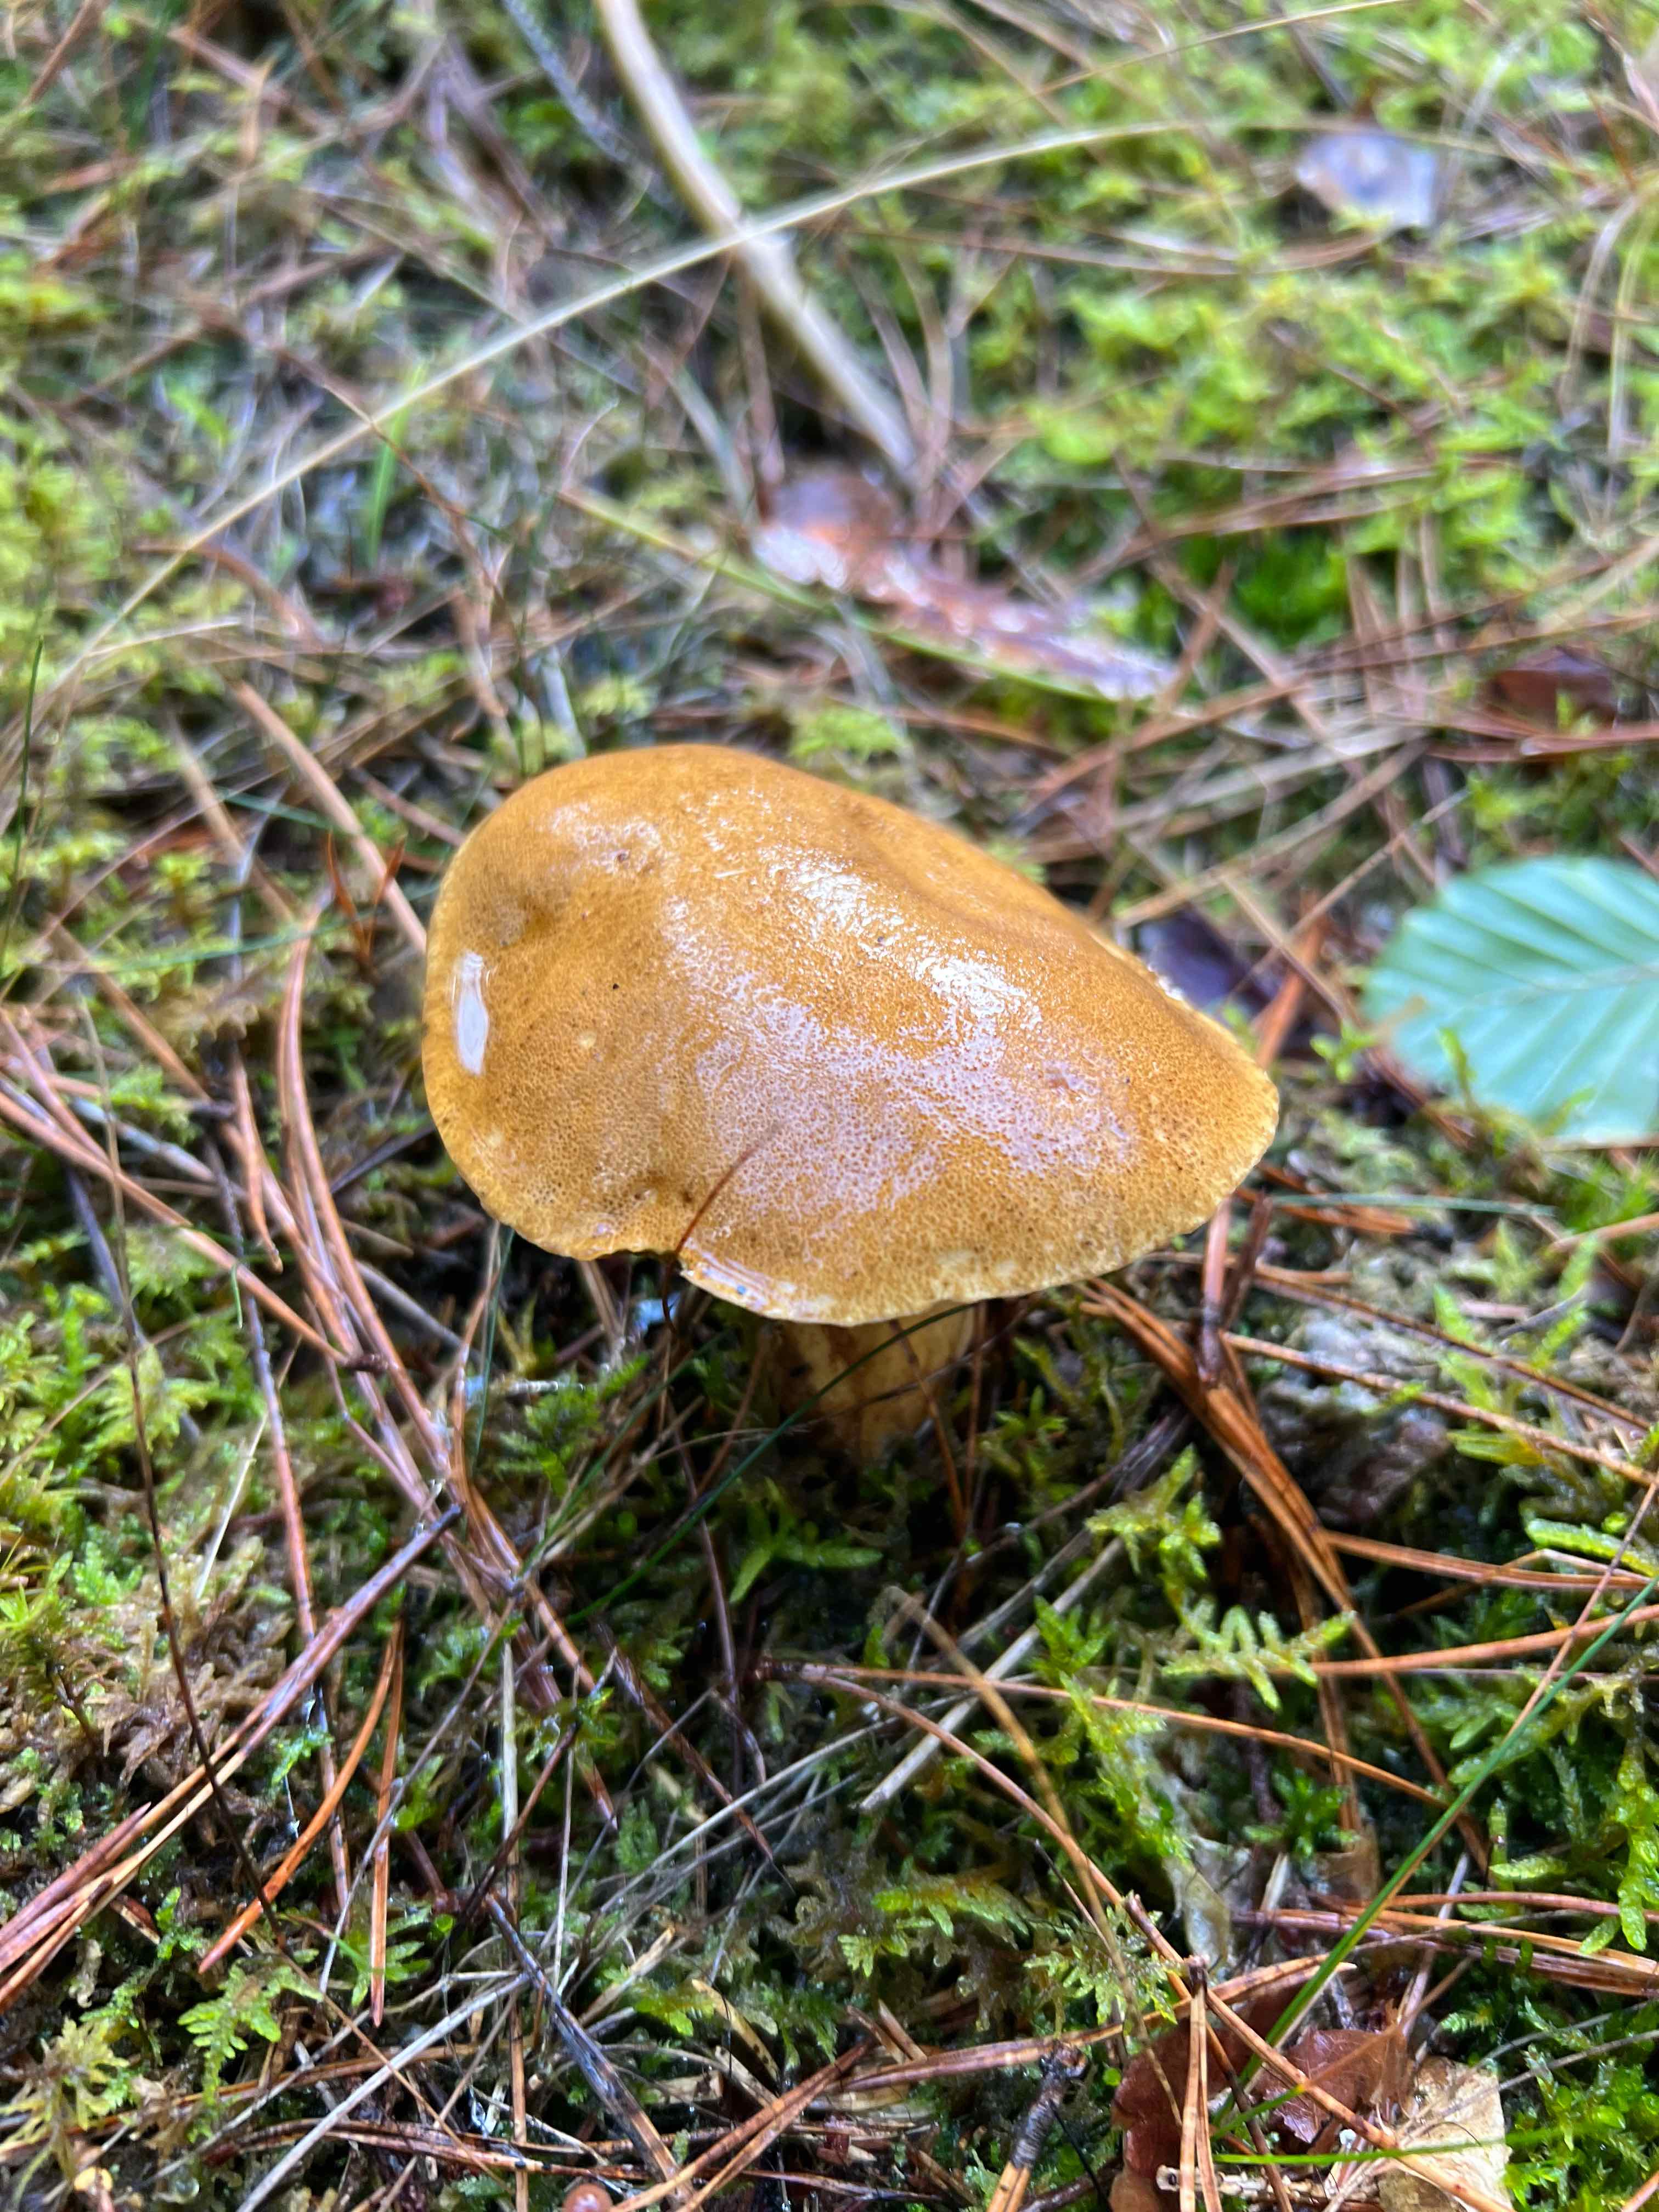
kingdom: Fungi
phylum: Basidiomycota
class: Agaricomycetes
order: Boletales
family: Suillaceae
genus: Suillus
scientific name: Suillus variegatus
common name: broget slimrørhat
